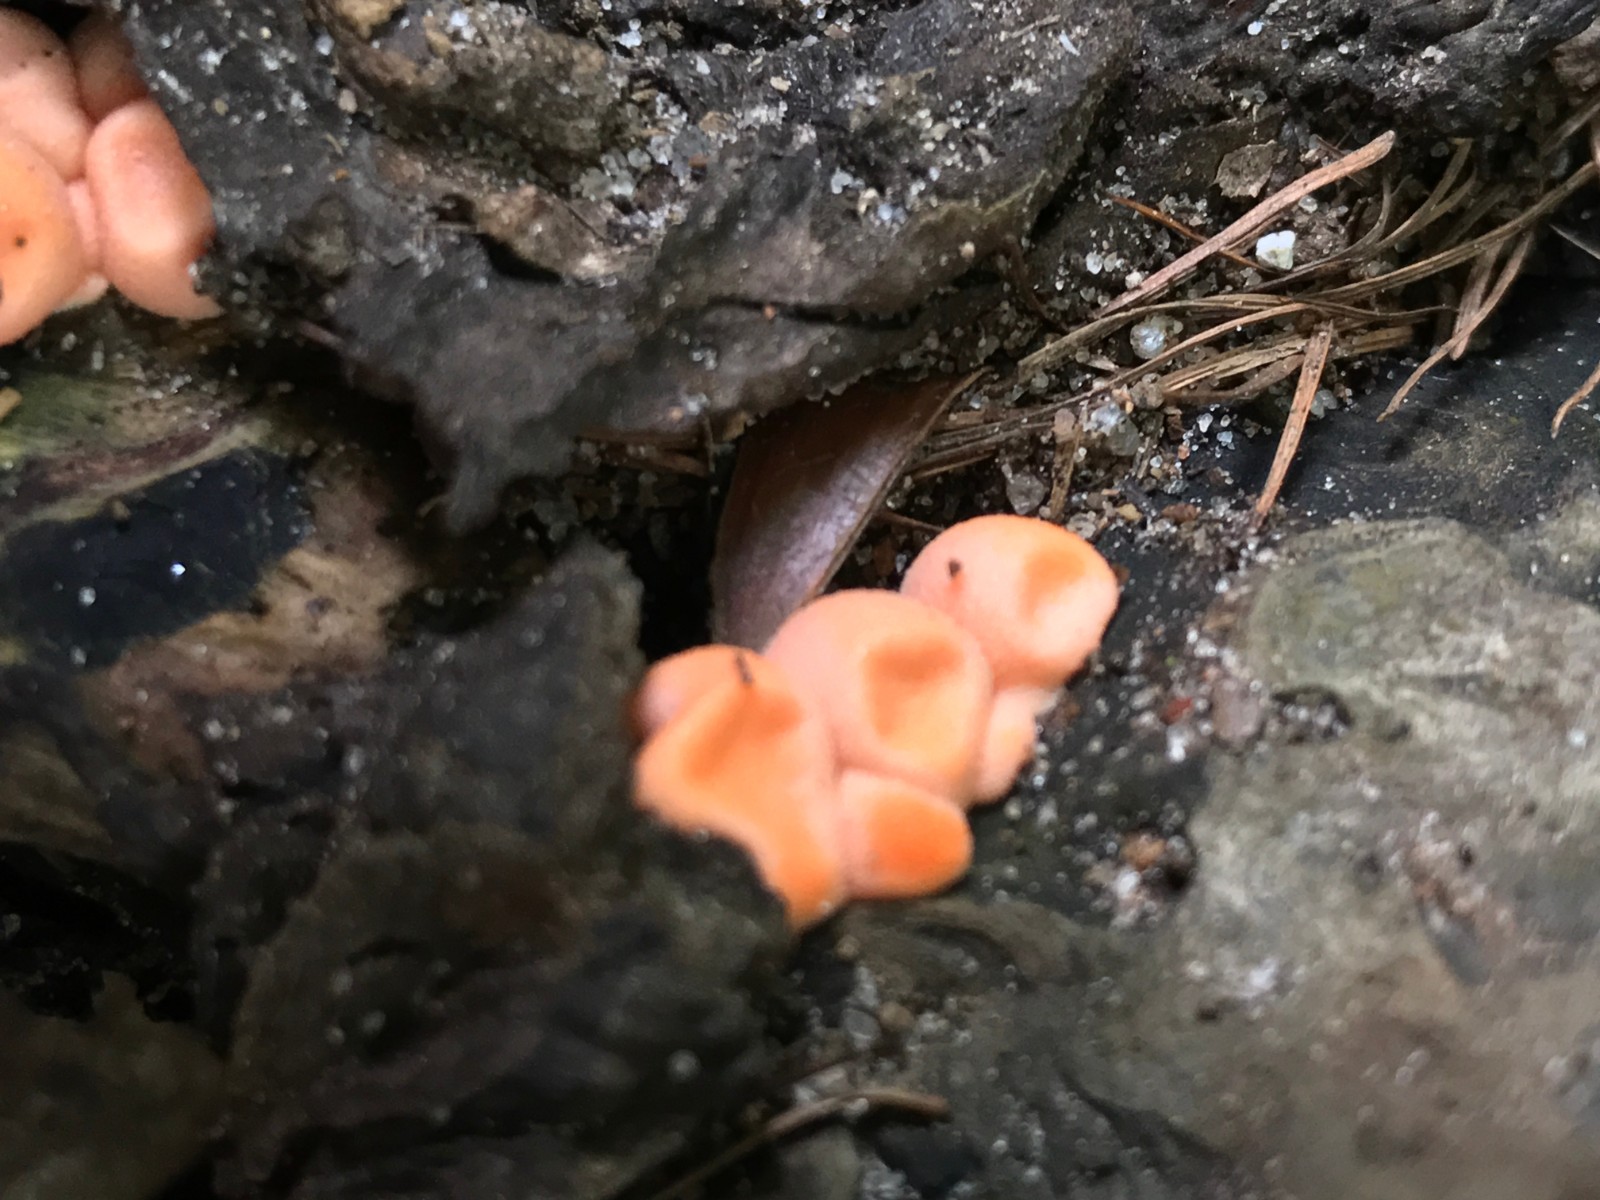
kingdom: Protozoa
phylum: Mycetozoa
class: Myxomycetes
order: Cribrariales
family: Tubiferaceae
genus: Lycogala
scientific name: Lycogala epidendrum
